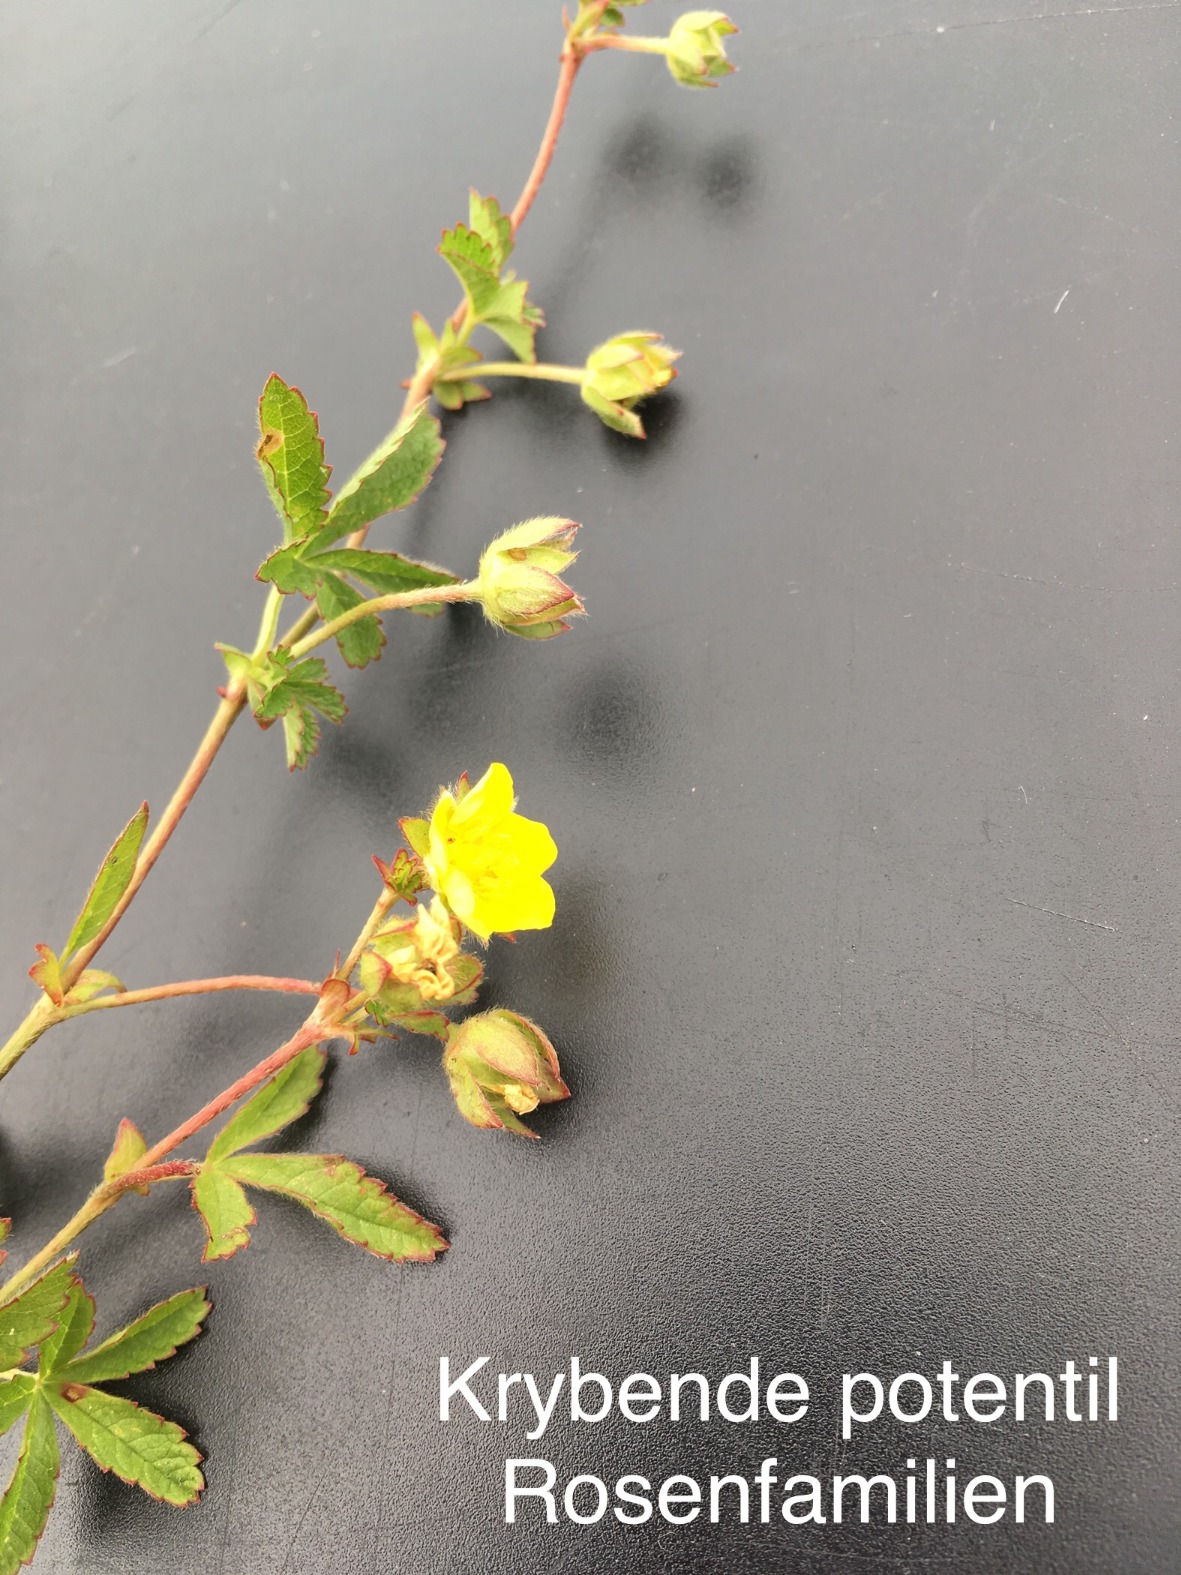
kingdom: Plantae
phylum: Tracheophyta
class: Magnoliopsida
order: Rosales
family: Rosaceae
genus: Potentilla
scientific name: Potentilla reptans
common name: Krybende potentil
